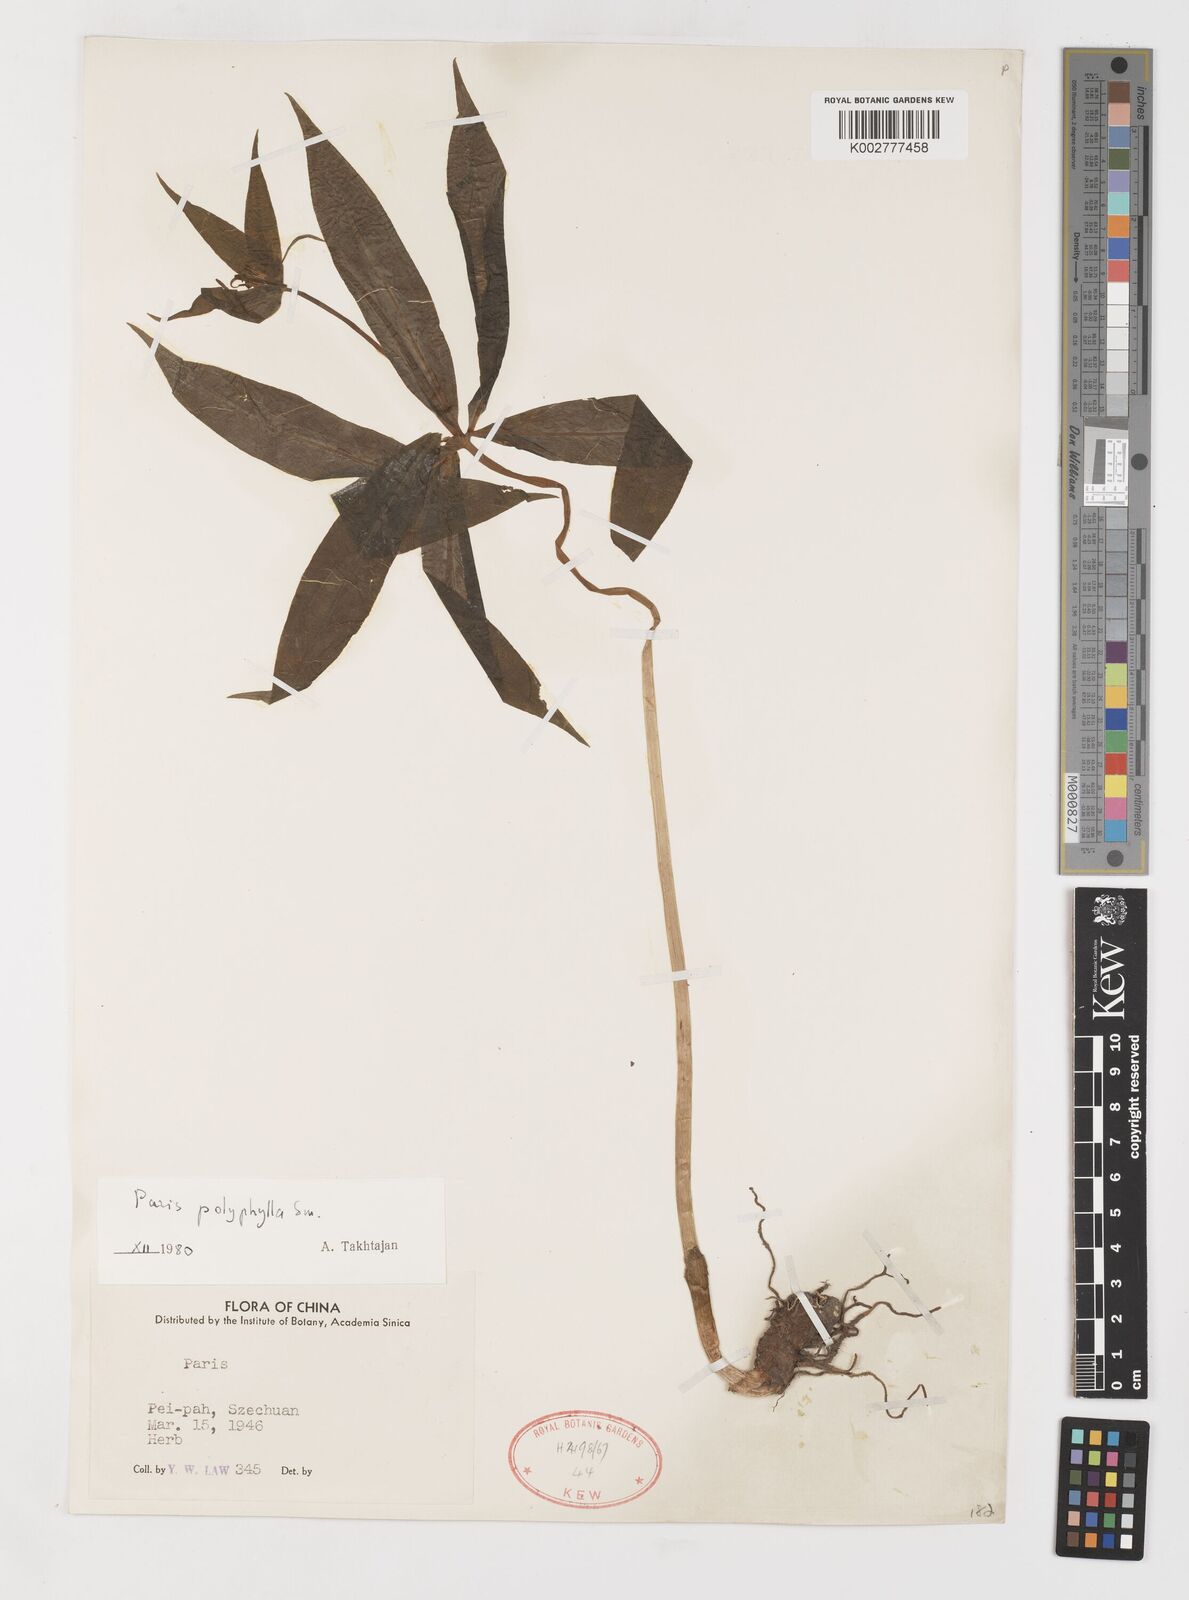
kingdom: Plantae
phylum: Tracheophyta
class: Liliopsida
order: Liliales
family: Melanthiaceae
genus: Paris
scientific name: Paris polyphylla
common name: Love apple
